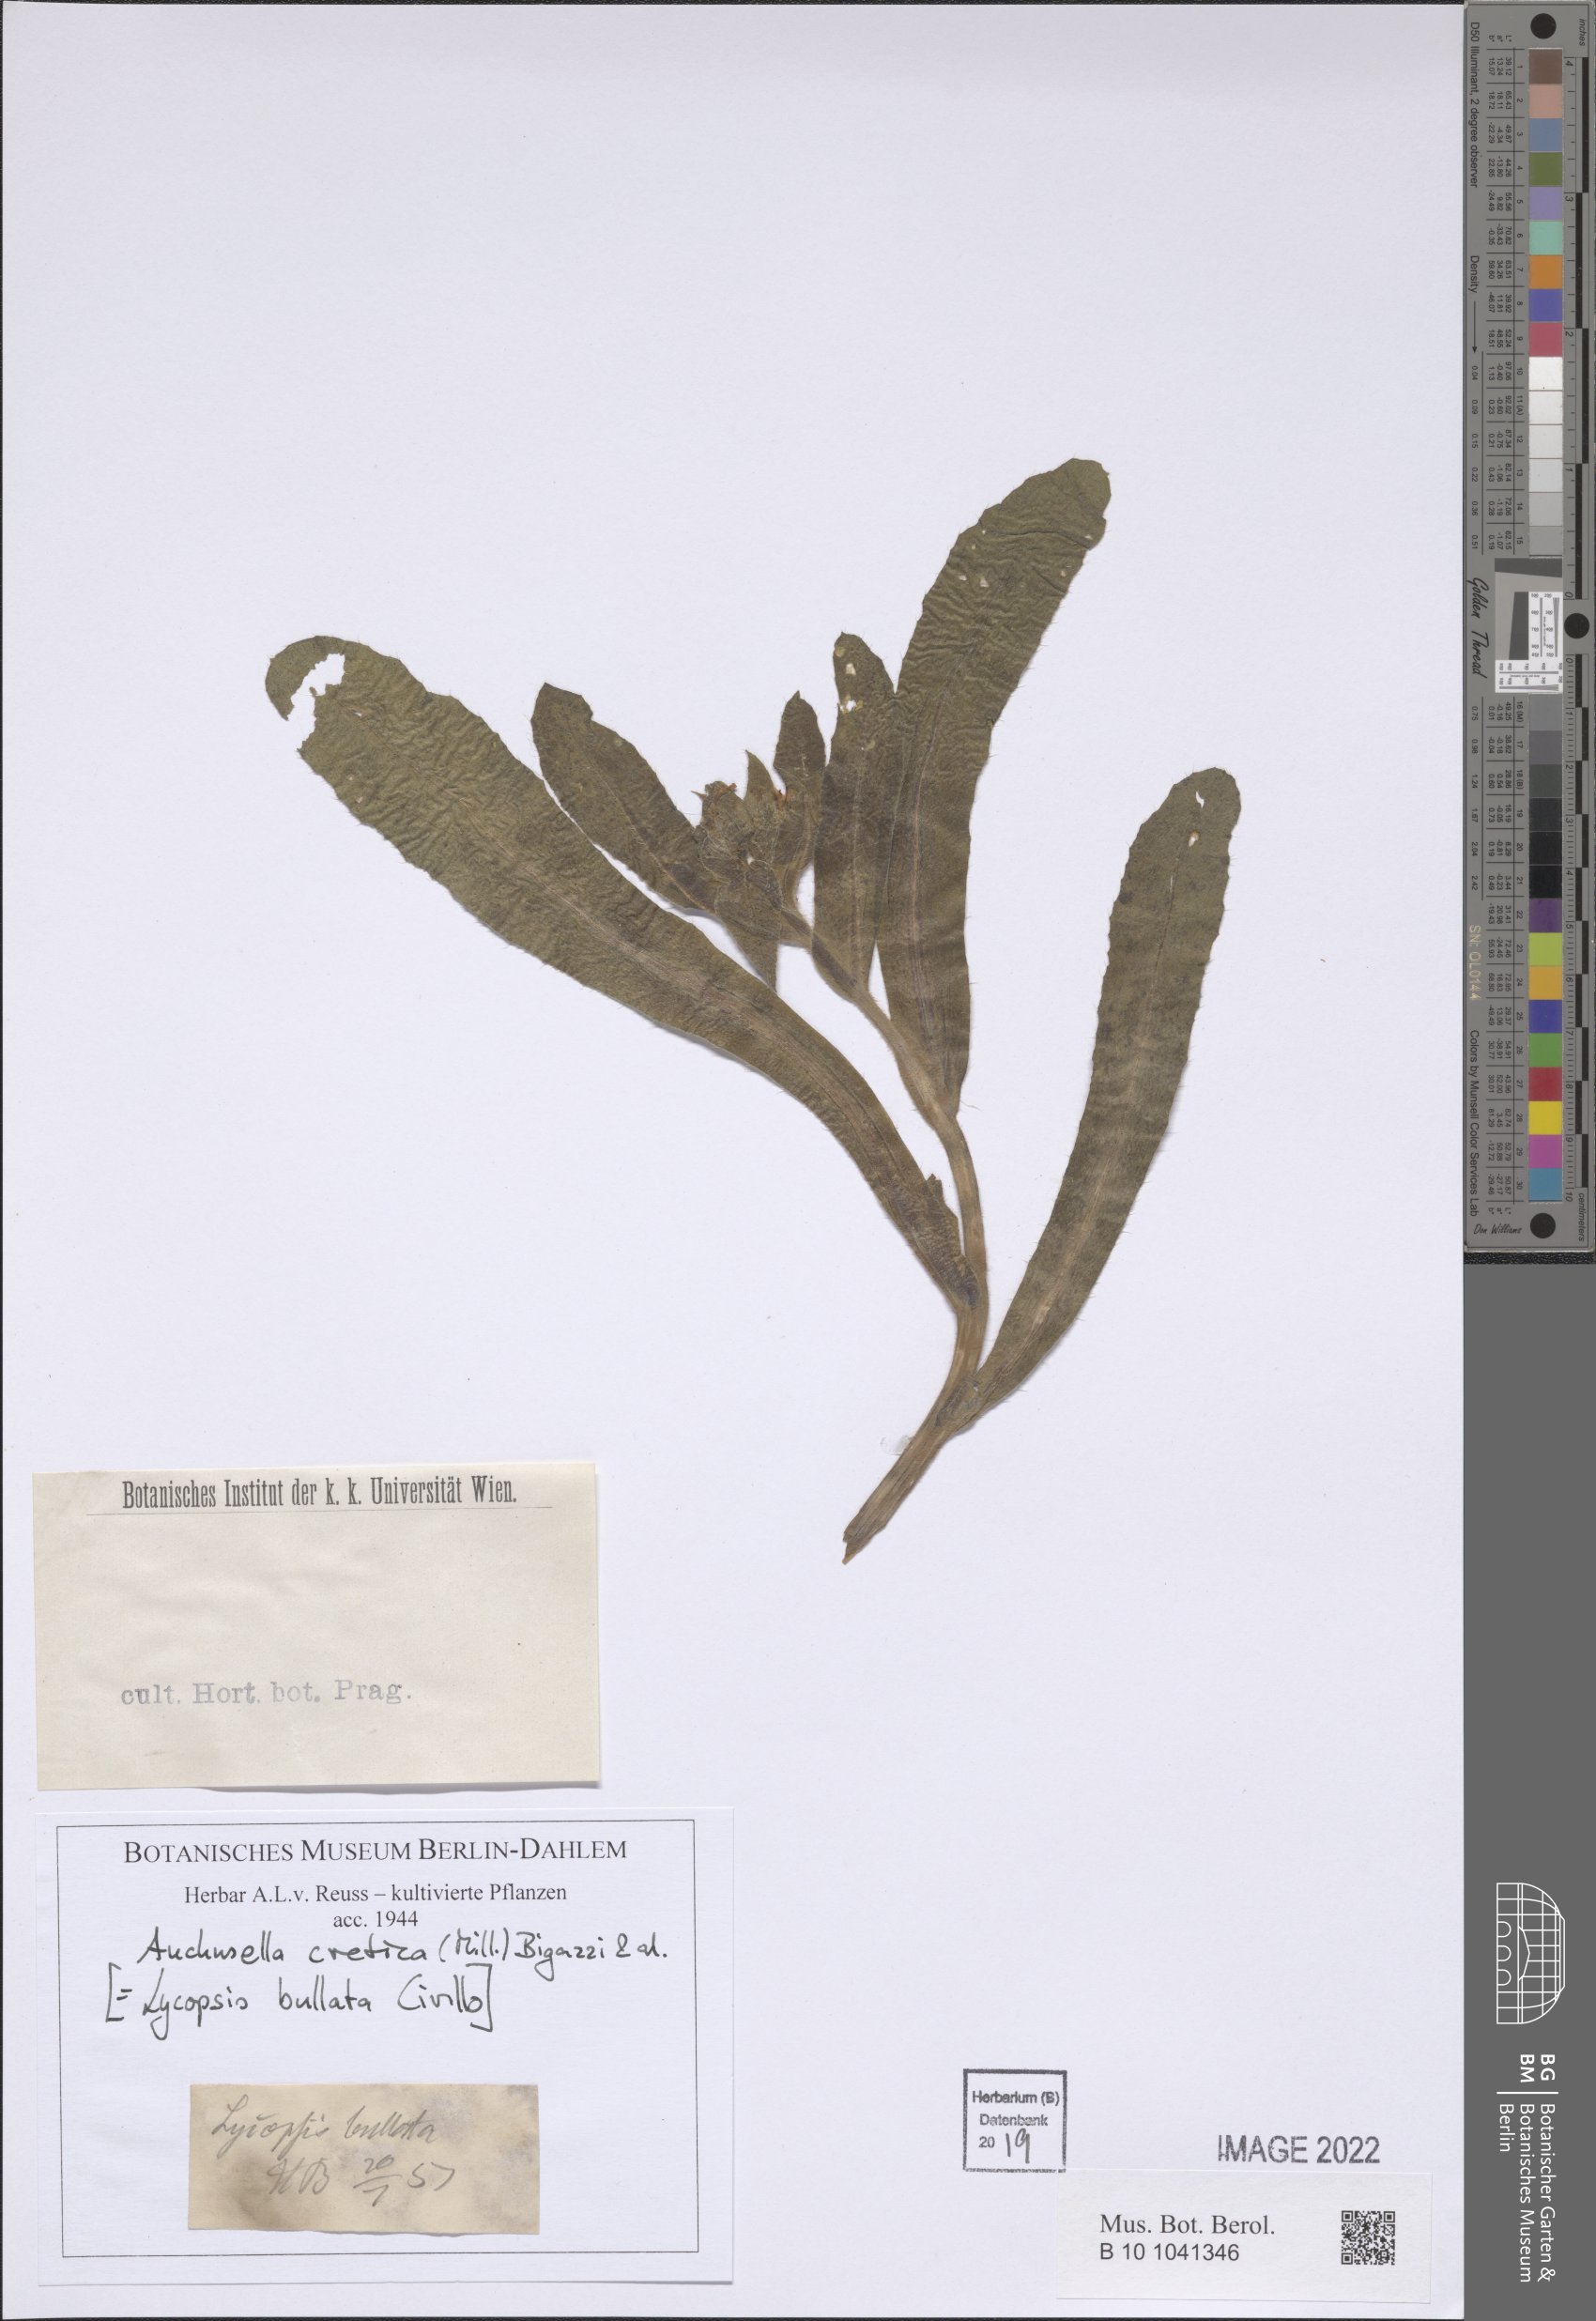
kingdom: Plantae
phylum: Tracheophyta
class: Magnoliopsida
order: Boraginales
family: Boraginaceae
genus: Anchusella
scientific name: Anchusella cretica
